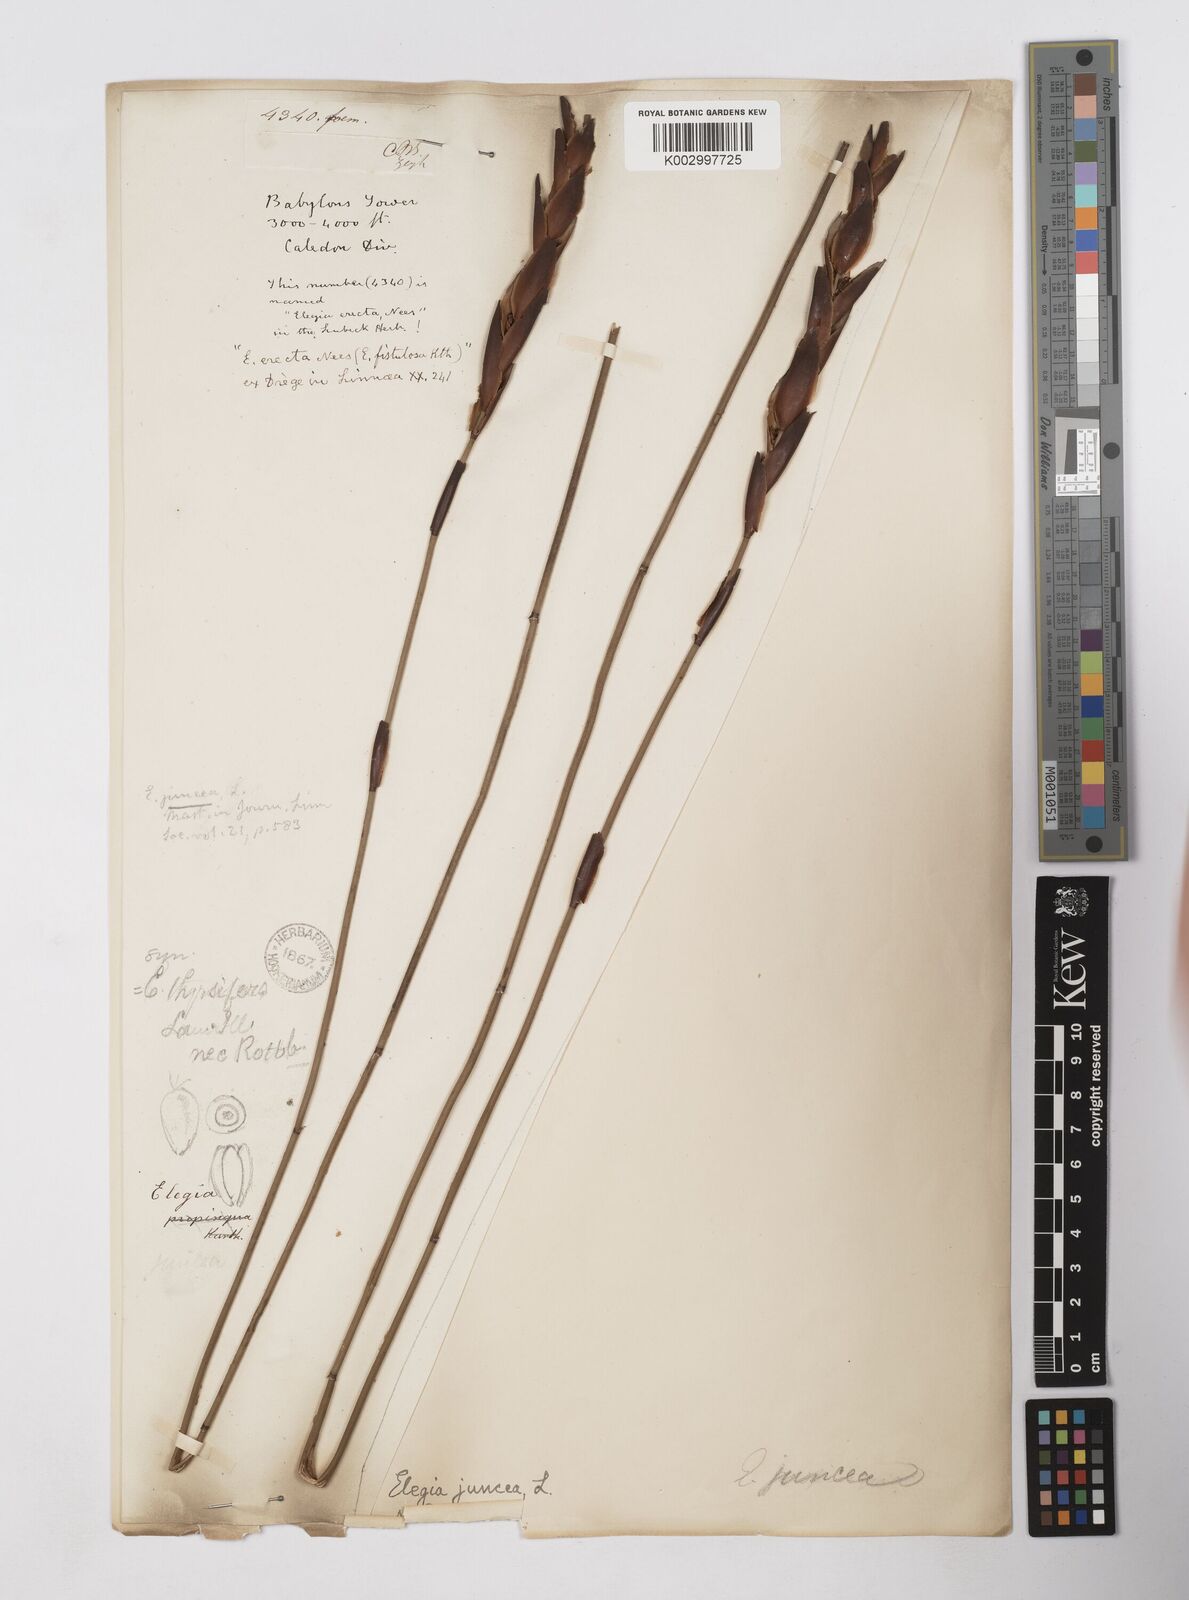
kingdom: Plantae
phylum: Tracheophyta
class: Liliopsida
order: Poales
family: Restionaceae
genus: Elegia
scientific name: Elegia juncea
